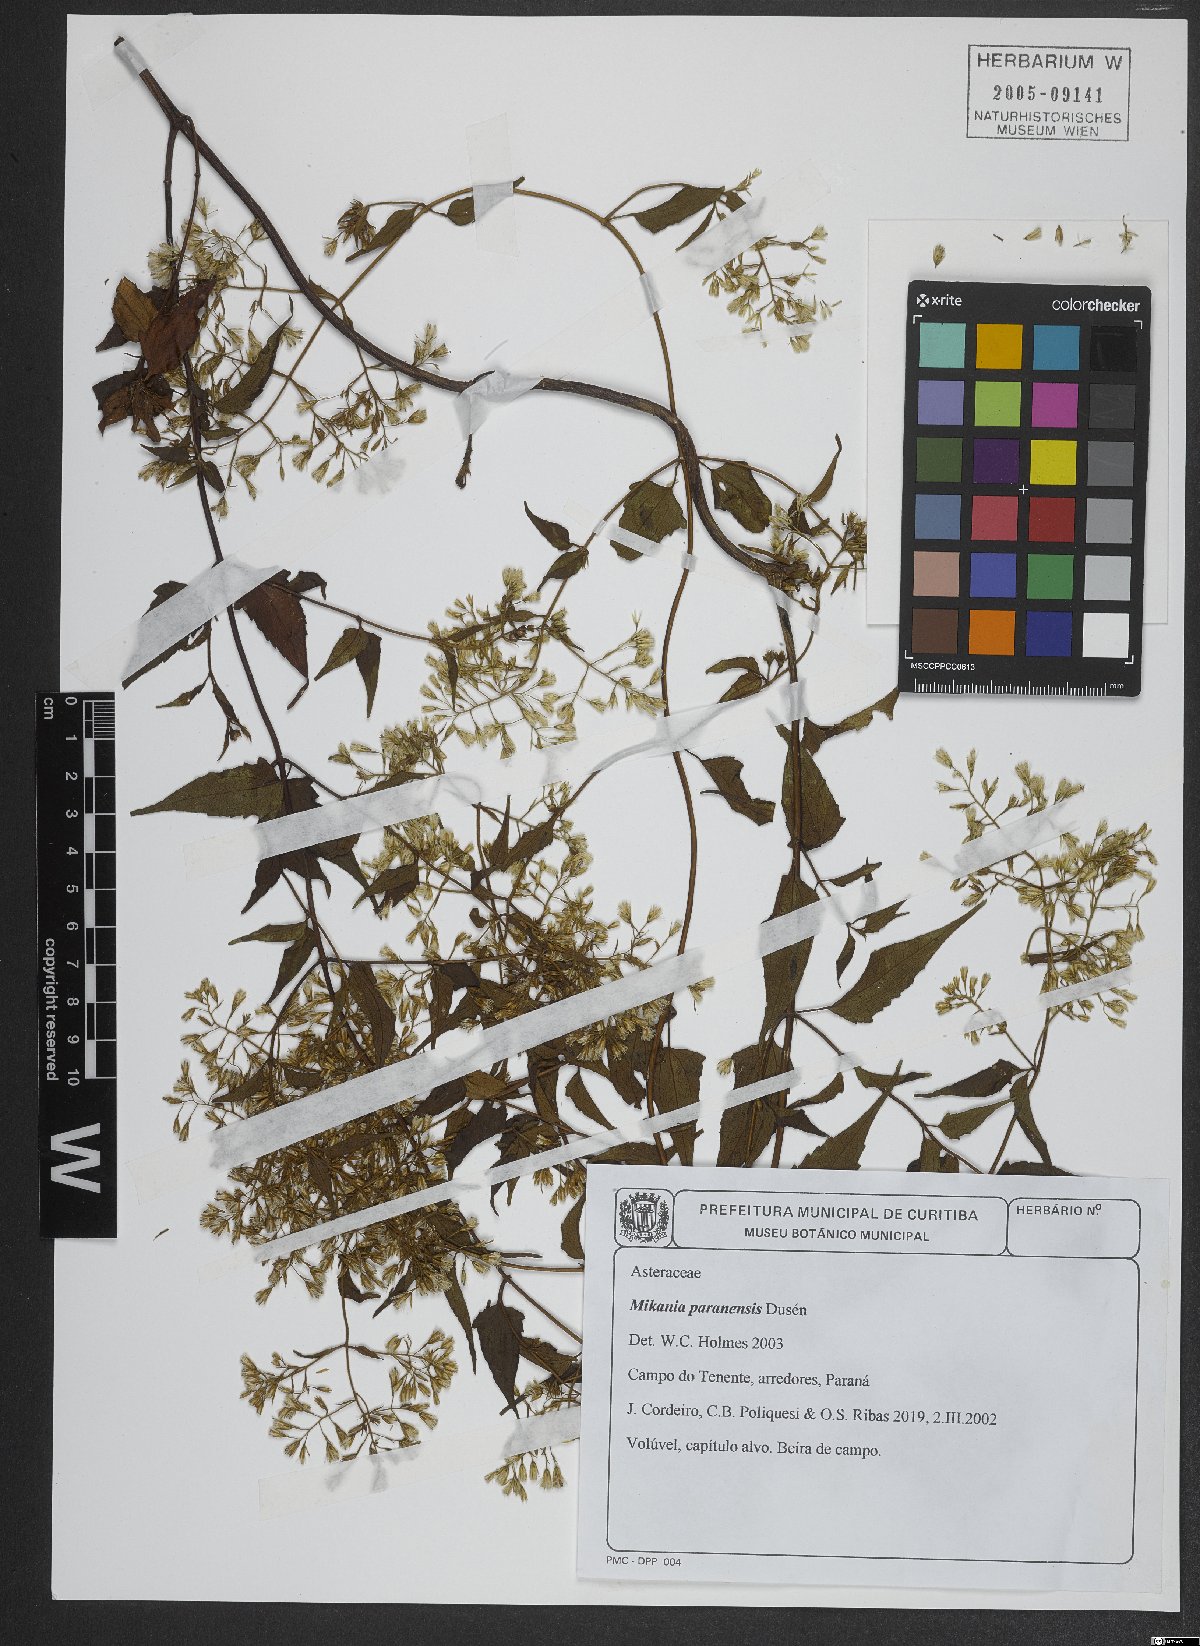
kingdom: Plantae
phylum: Tracheophyta
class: Magnoliopsida
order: Asterales
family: Asteraceae
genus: Mikania
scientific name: Mikania paranensis
